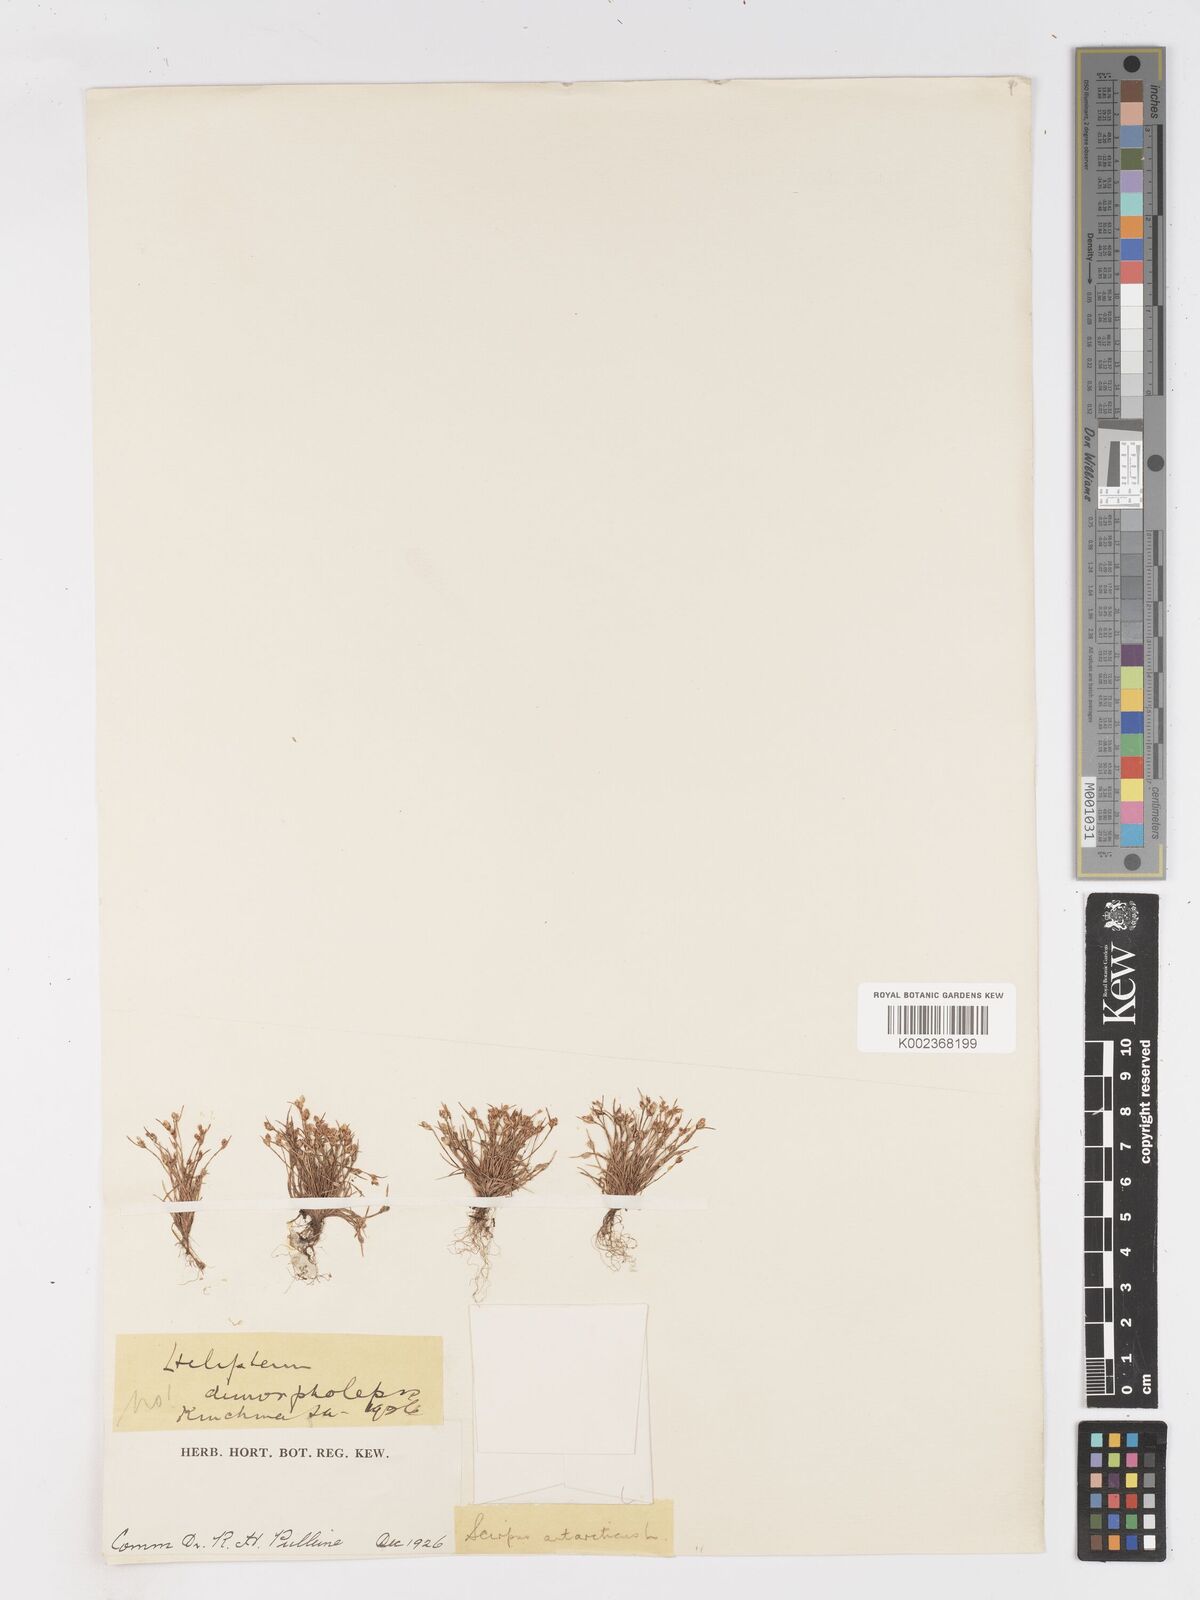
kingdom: Plantae
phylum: Tracheophyta
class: Liliopsida
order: Poales
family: Cyperaceae
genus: Isolepis
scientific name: Isolepis antarctica
